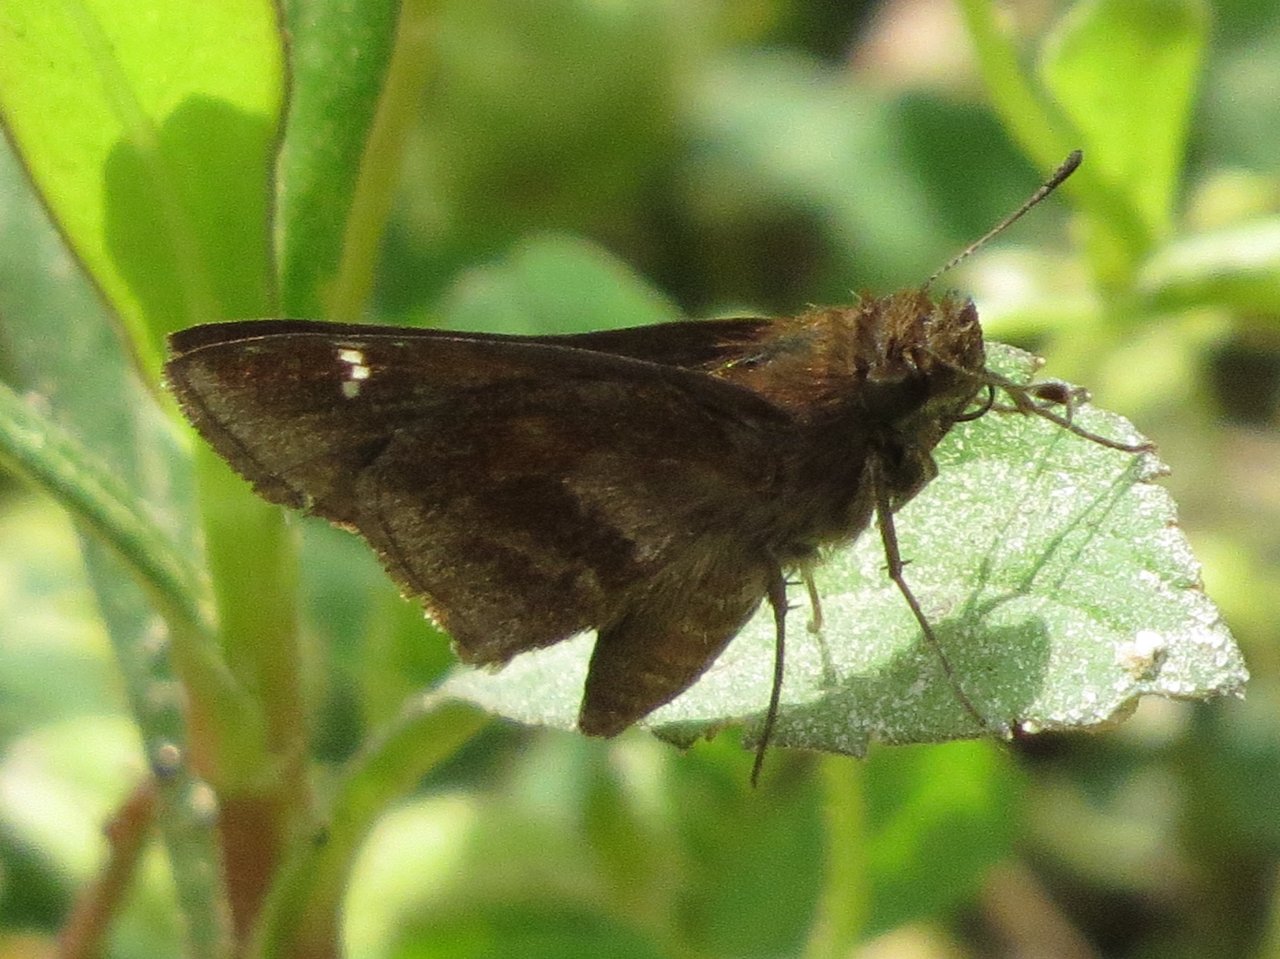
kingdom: Animalia
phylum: Arthropoda
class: Insecta
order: Lepidoptera
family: Hesperiidae
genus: Lerema
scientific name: Lerema accius
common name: Clouded Skipper
